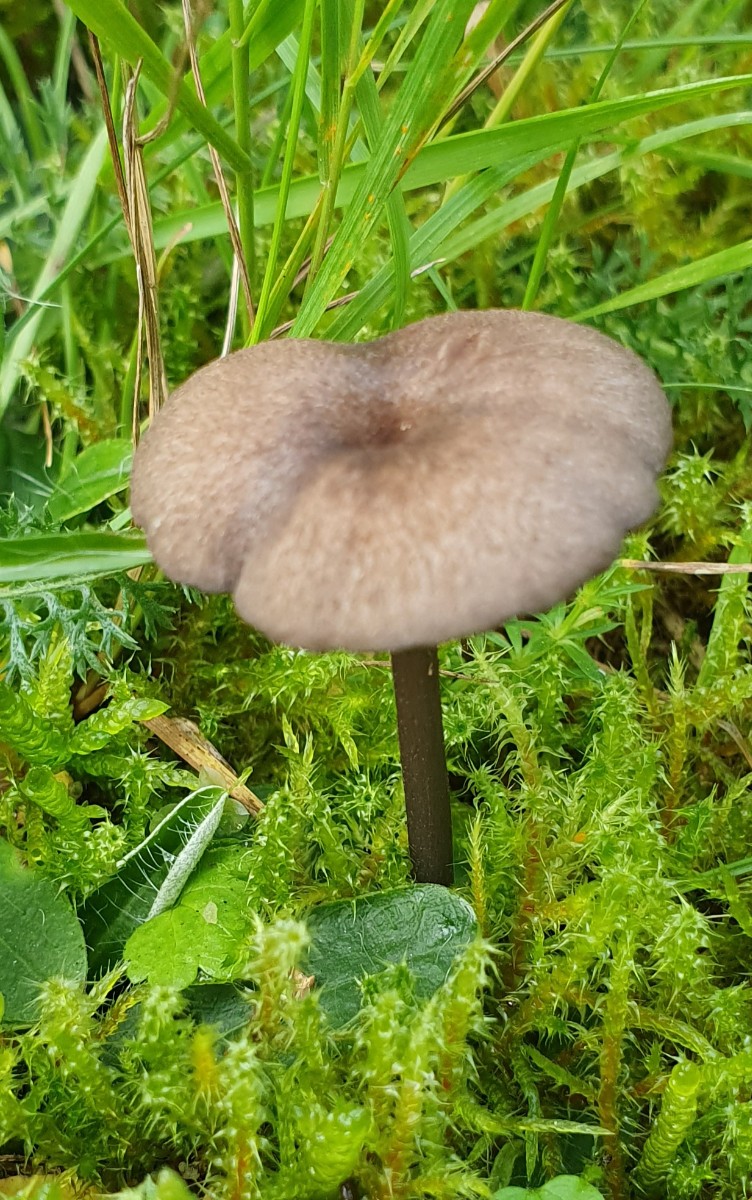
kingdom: Fungi
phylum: Basidiomycota
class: Agaricomycetes
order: Agaricales
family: Entolomataceae
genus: Entoloma
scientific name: Entoloma
